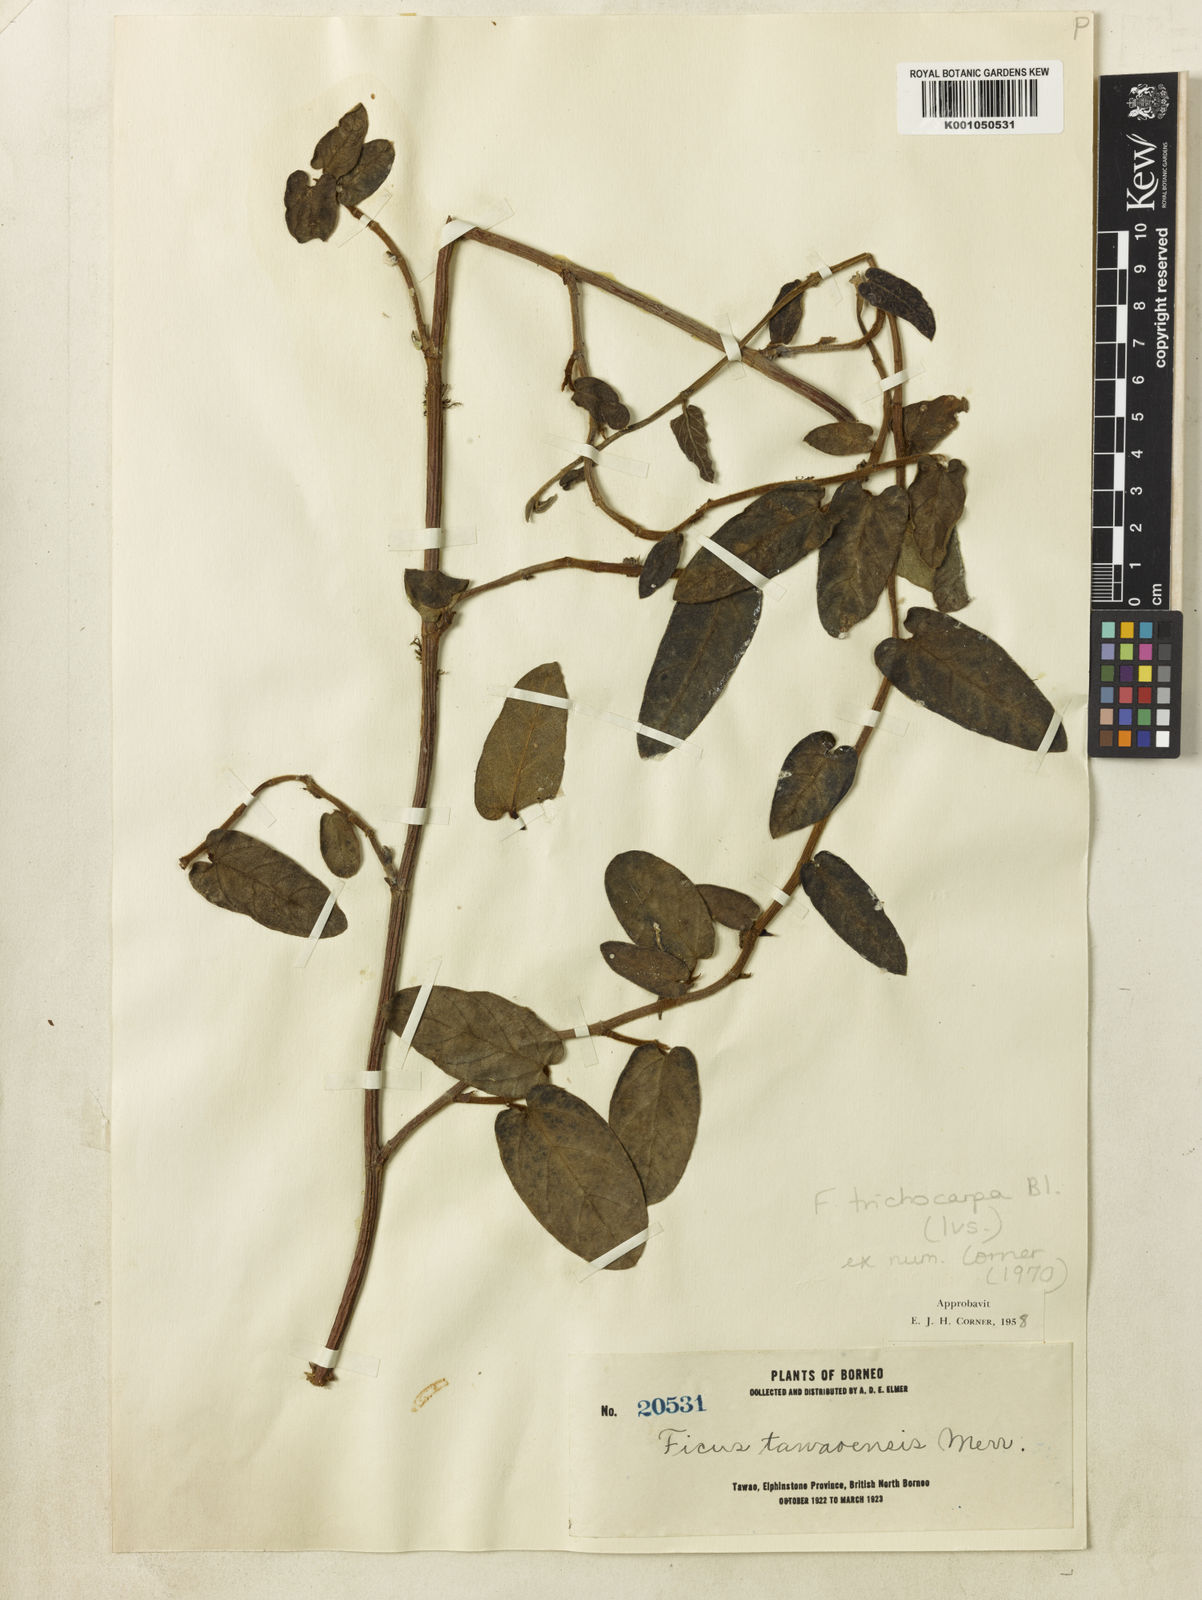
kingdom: Plantae
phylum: Tracheophyta
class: Magnoliopsida
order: Rosales
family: Moraceae
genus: Ficus
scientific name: Ficus trichocarpa
